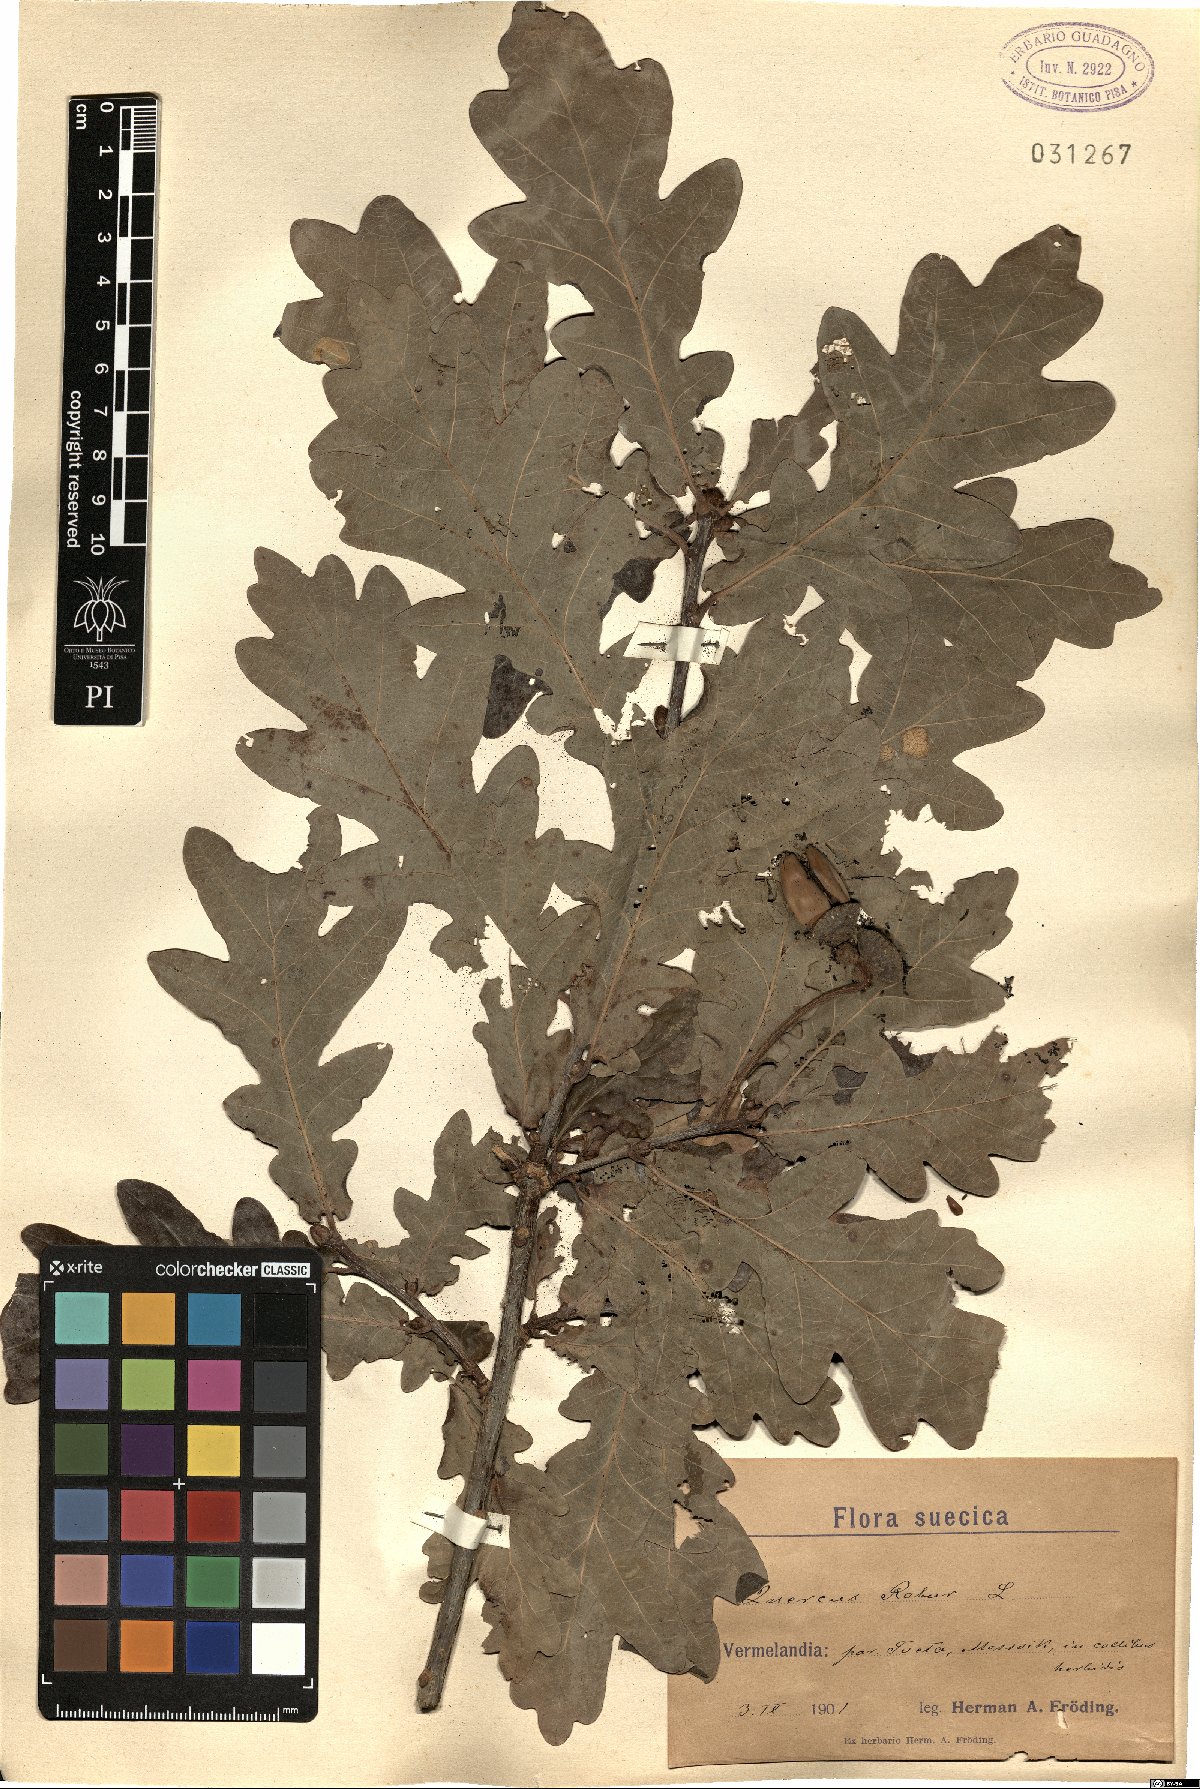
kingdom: Plantae
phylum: Tracheophyta
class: Magnoliopsida
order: Fagales
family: Fagaceae
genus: Quercus
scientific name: Quercus robur
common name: Pedunculate oak
